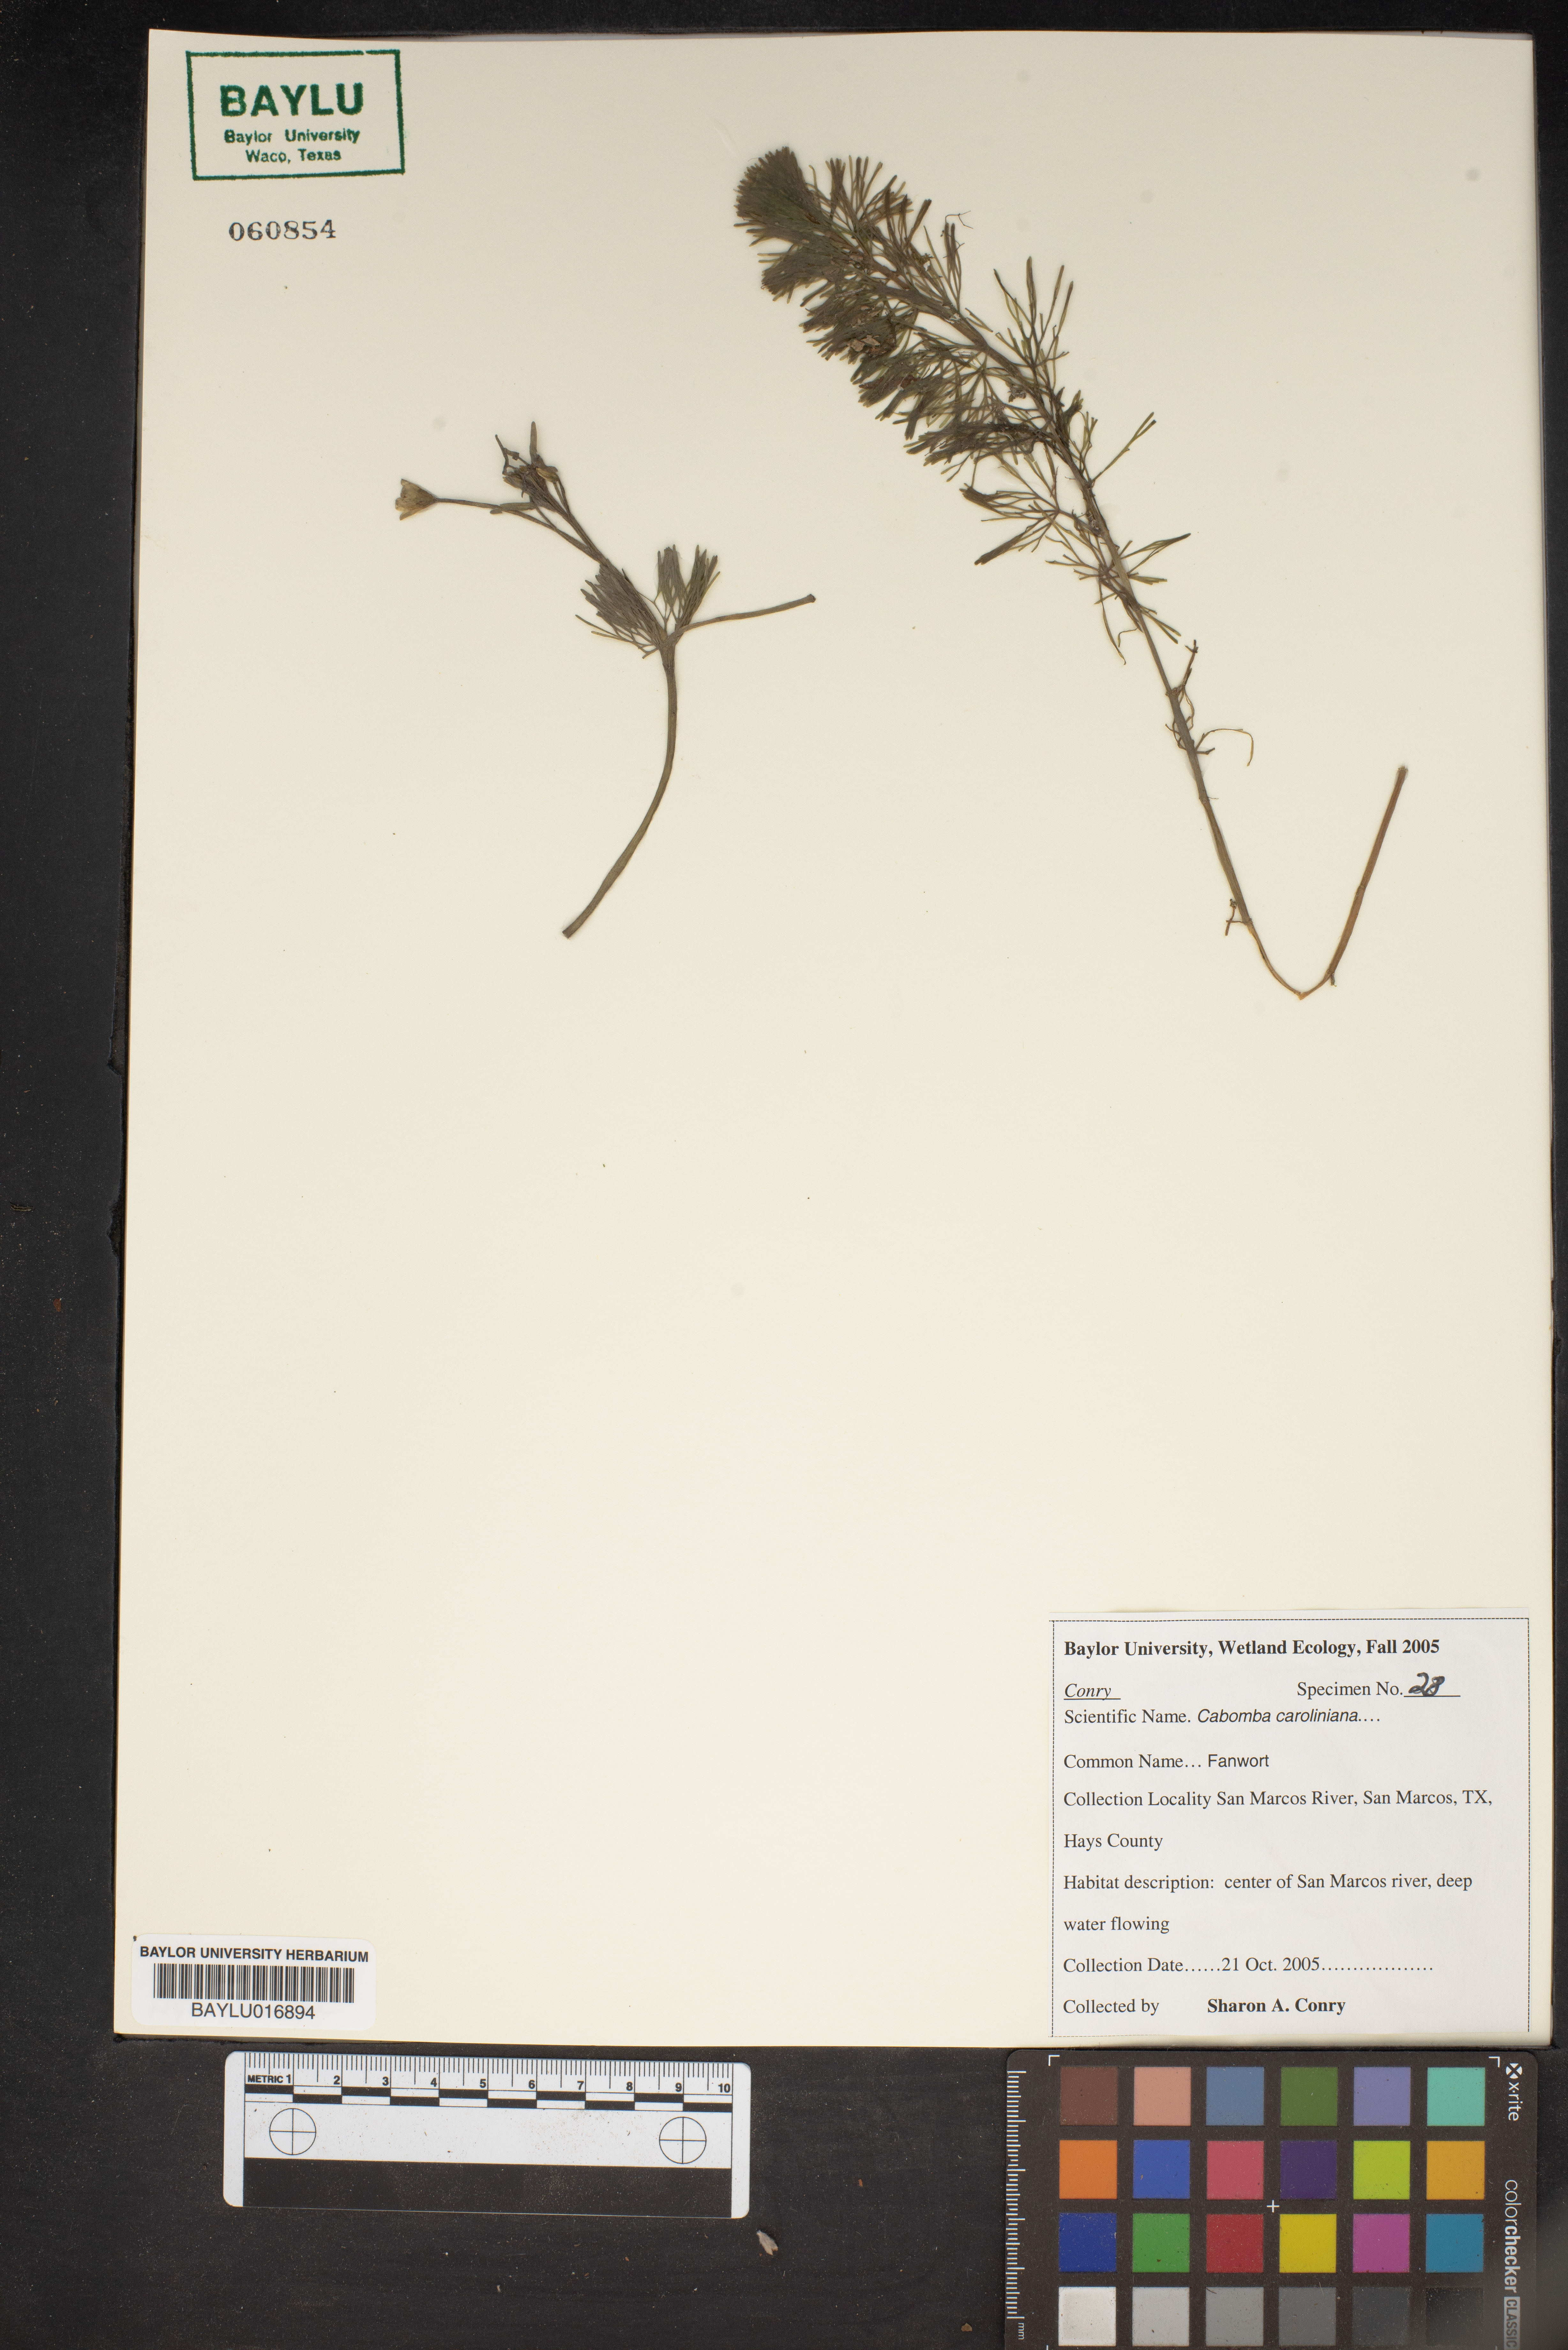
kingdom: Plantae
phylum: Tracheophyta
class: Magnoliopsida
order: Nymphaeales
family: Cabombaceae
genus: Cabomba
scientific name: Cabomba caroliniana
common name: Fanwort
